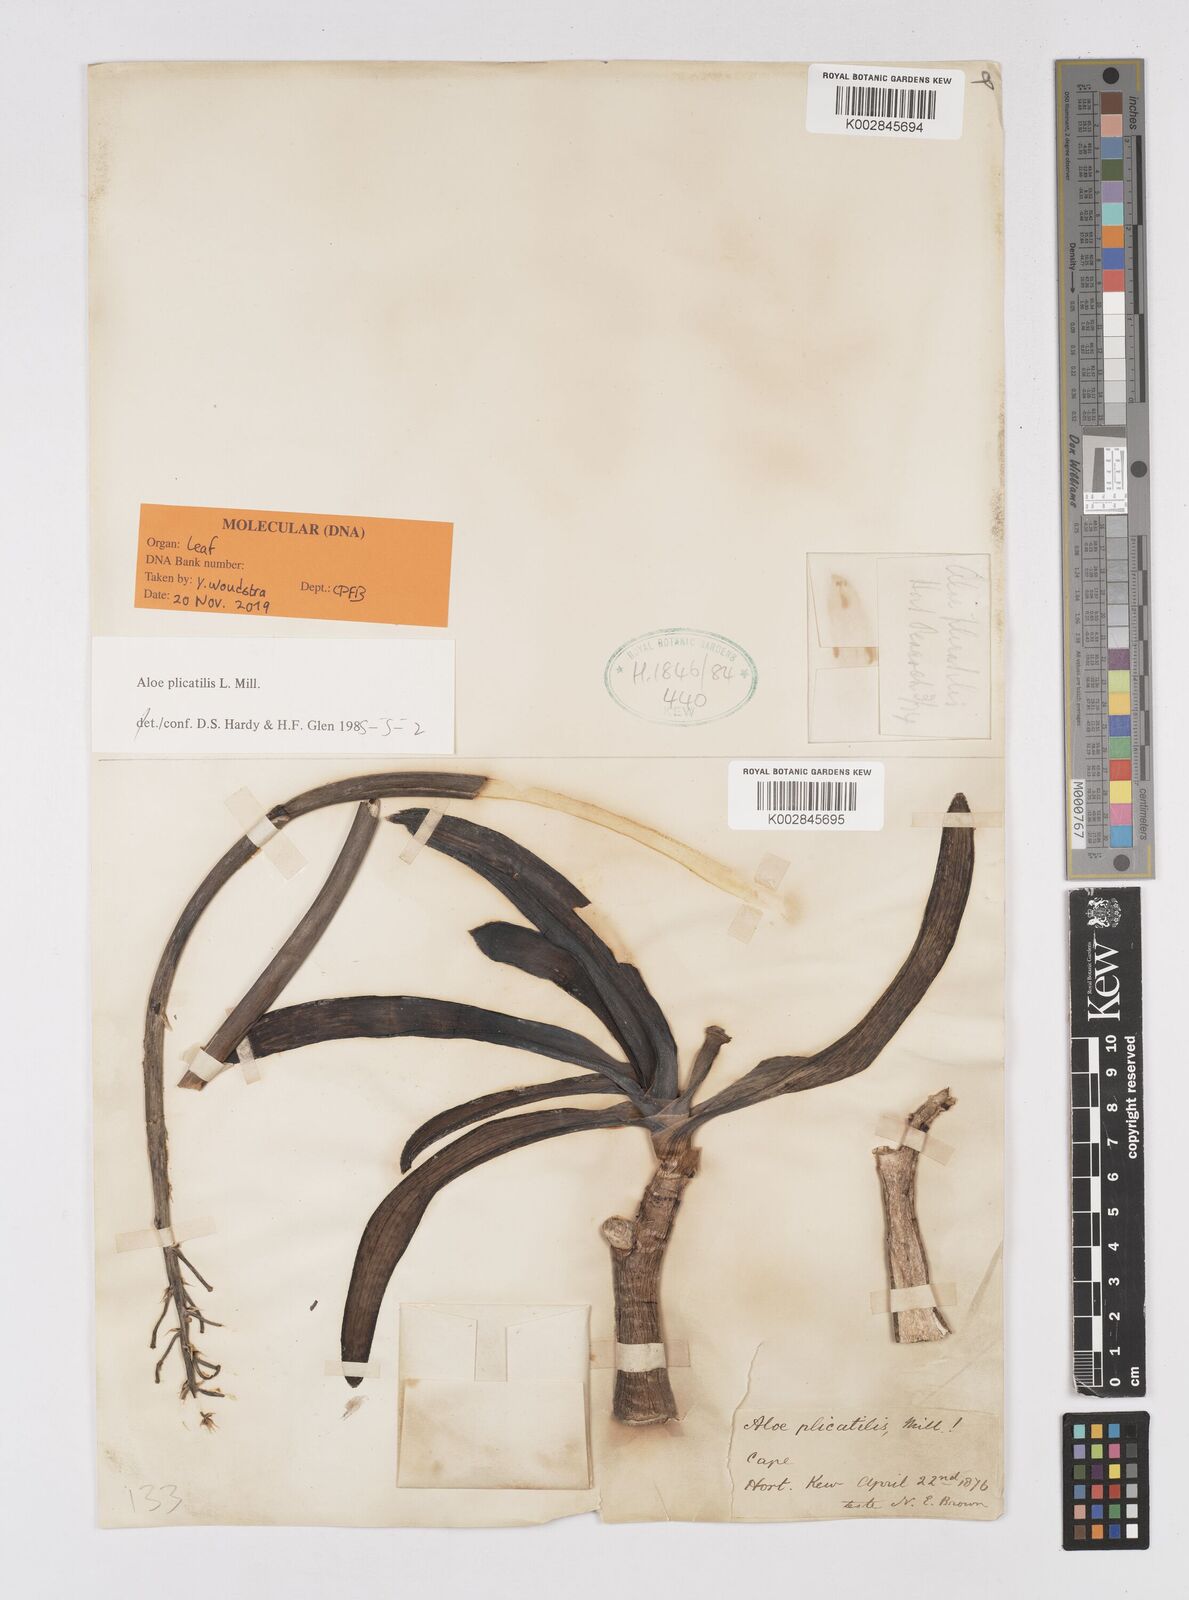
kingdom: Plantae
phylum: Tracheophyta
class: Liliopsida
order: Asparagales
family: Asphodelaceae
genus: Kumara
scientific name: Kumara plicatilis
